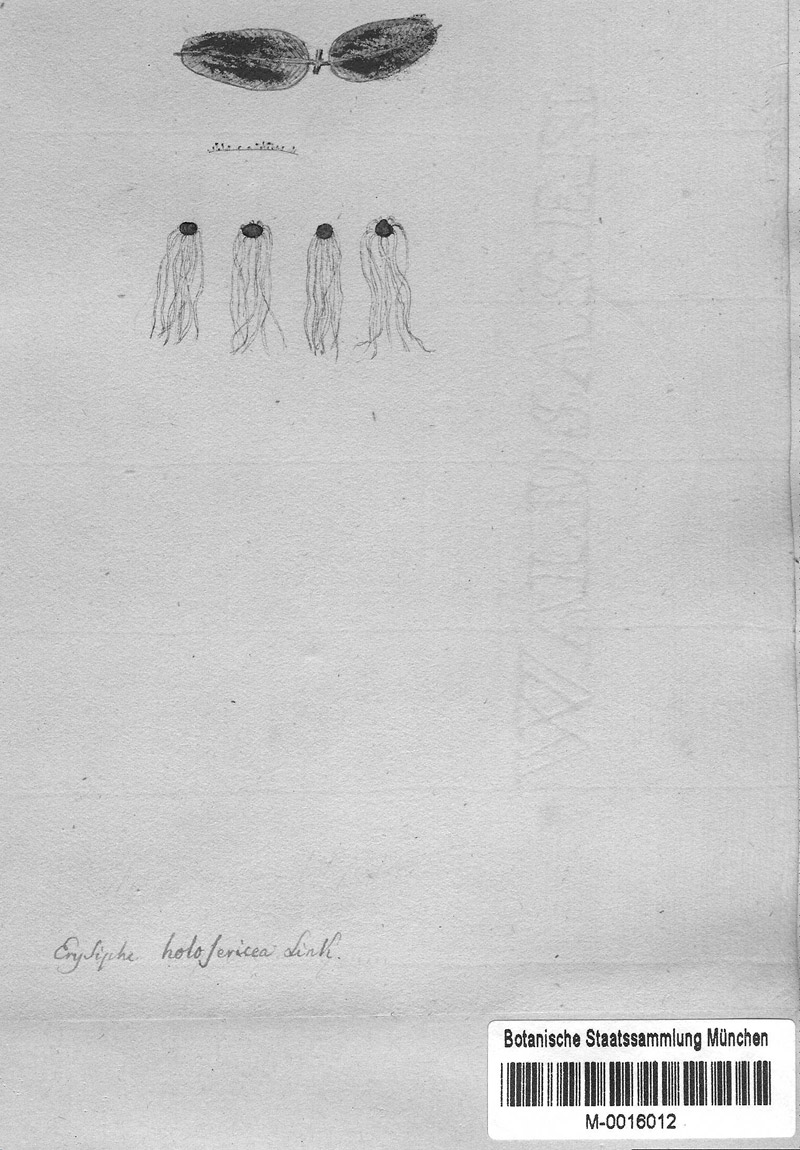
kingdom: Fungi
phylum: Ascomycota
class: Leotiomycetes
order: Helotiales
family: Erysiphaceae
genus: Erysiphe
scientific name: Erysiphe astragali
